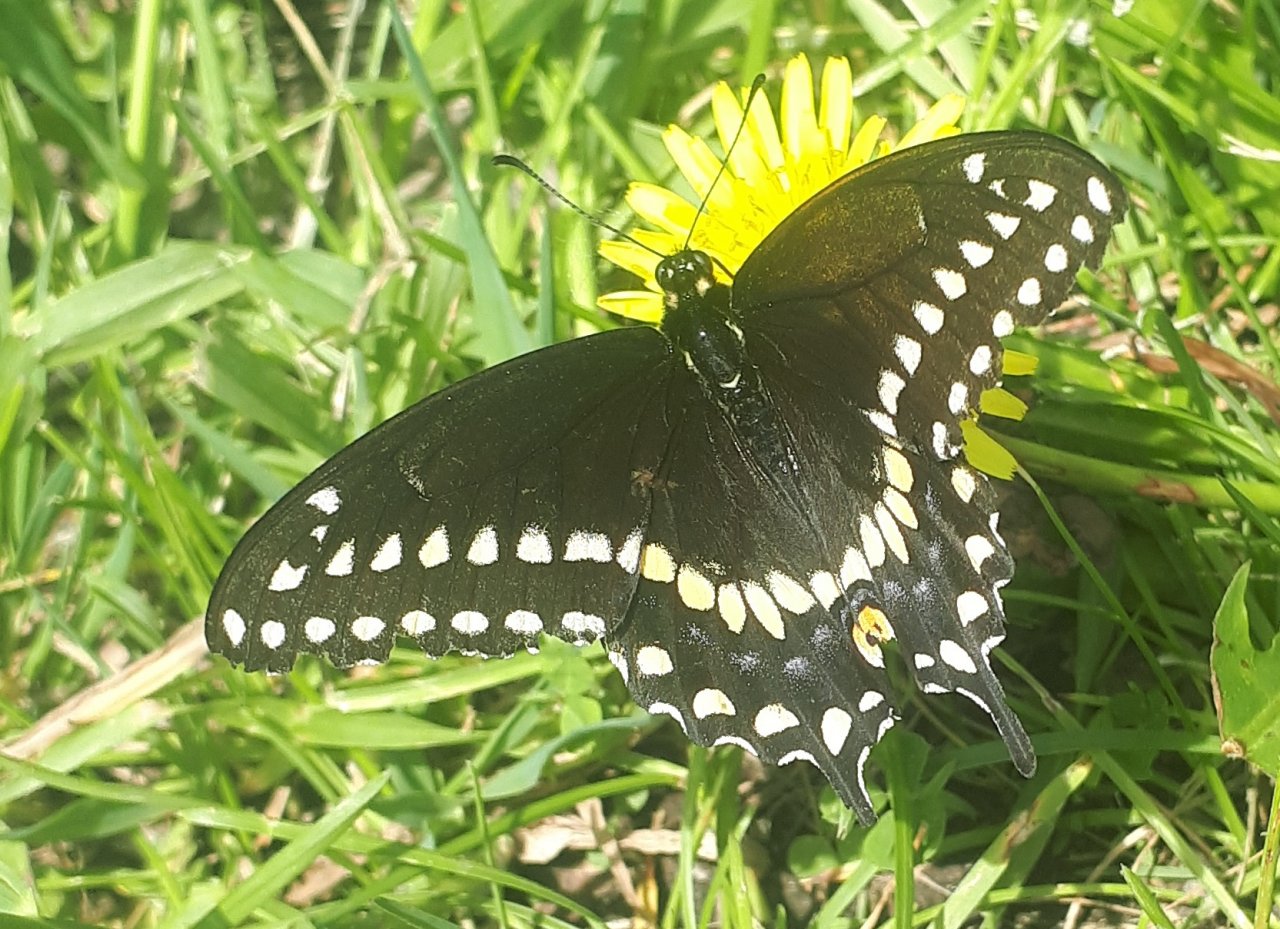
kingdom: Animalia
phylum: Arthropoda
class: Insecta
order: Lepidoptera
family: Papilionidae
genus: Papilio
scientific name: Papilio polyxenes
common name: Black Swallowtail
